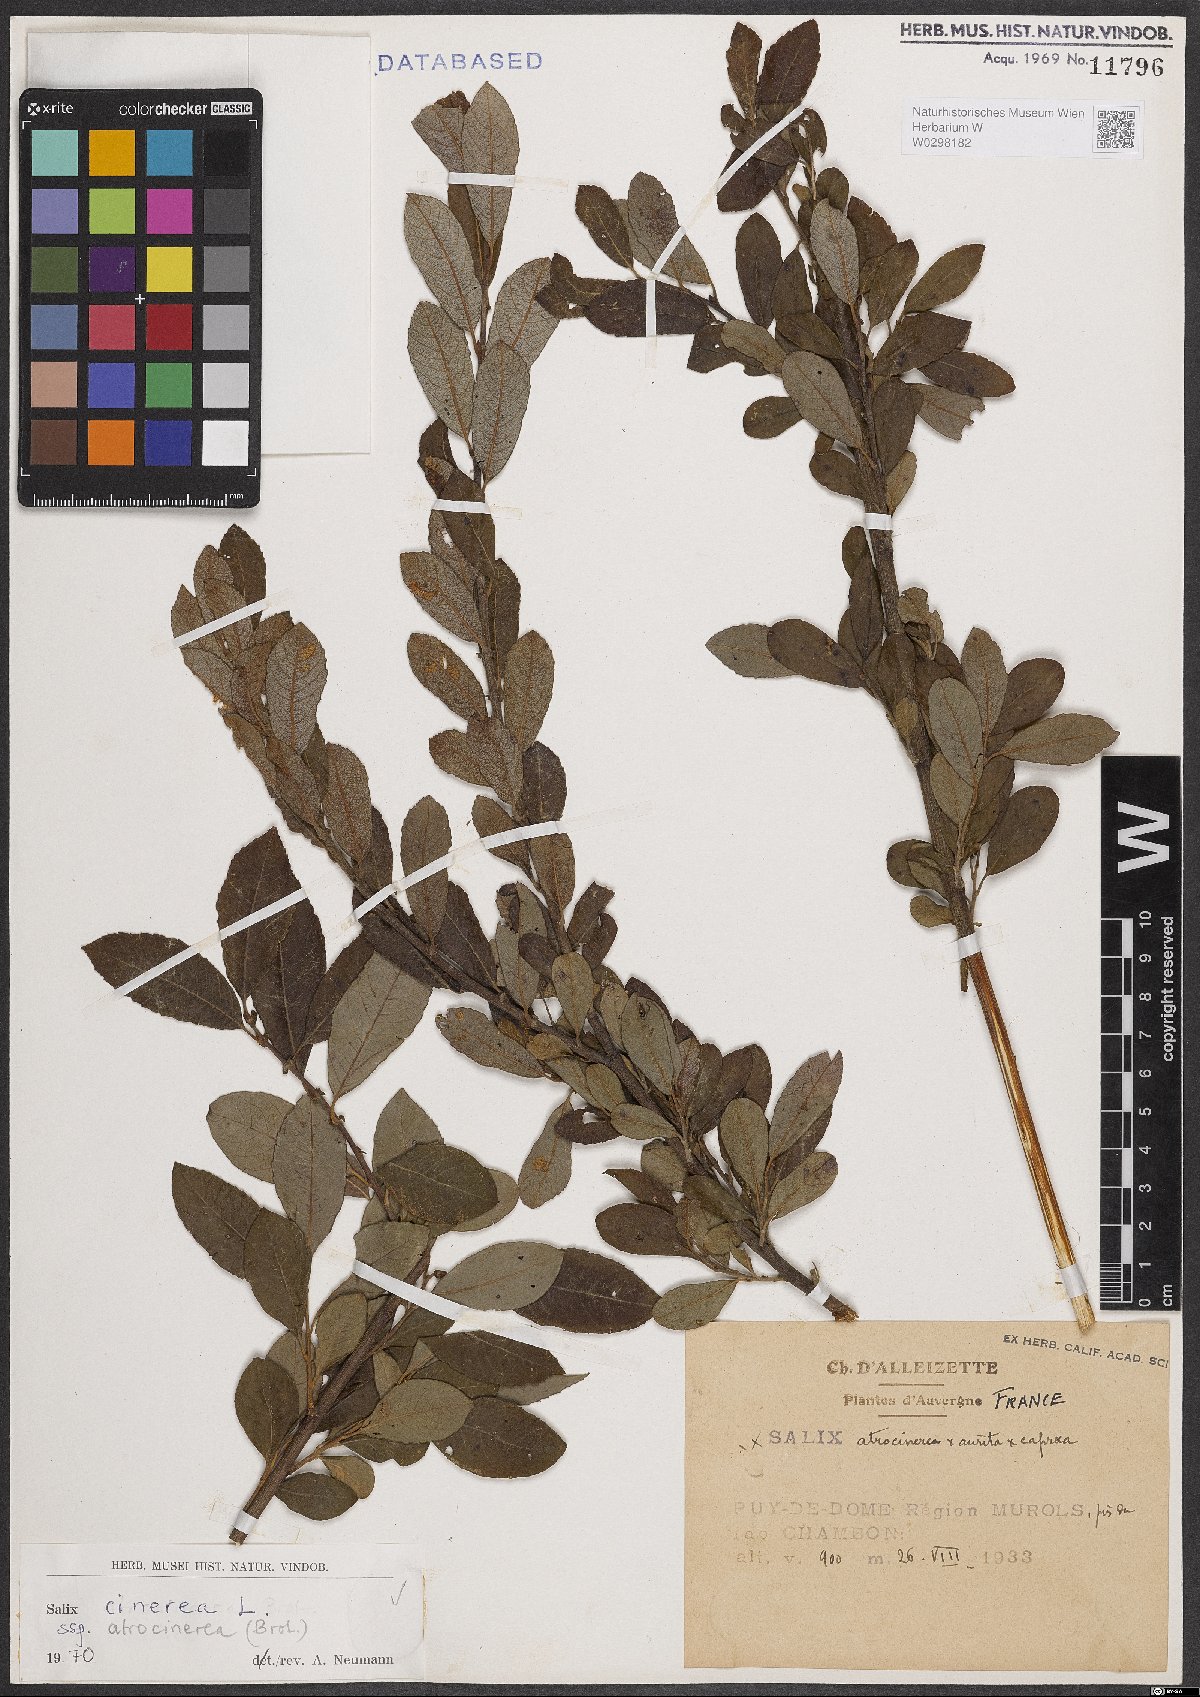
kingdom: Plantae
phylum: Tracheophyta
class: Magnoliopsida
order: Malpighiales
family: Salicaceae
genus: Salix
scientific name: Salix atrocinerea
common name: Rusty willow
